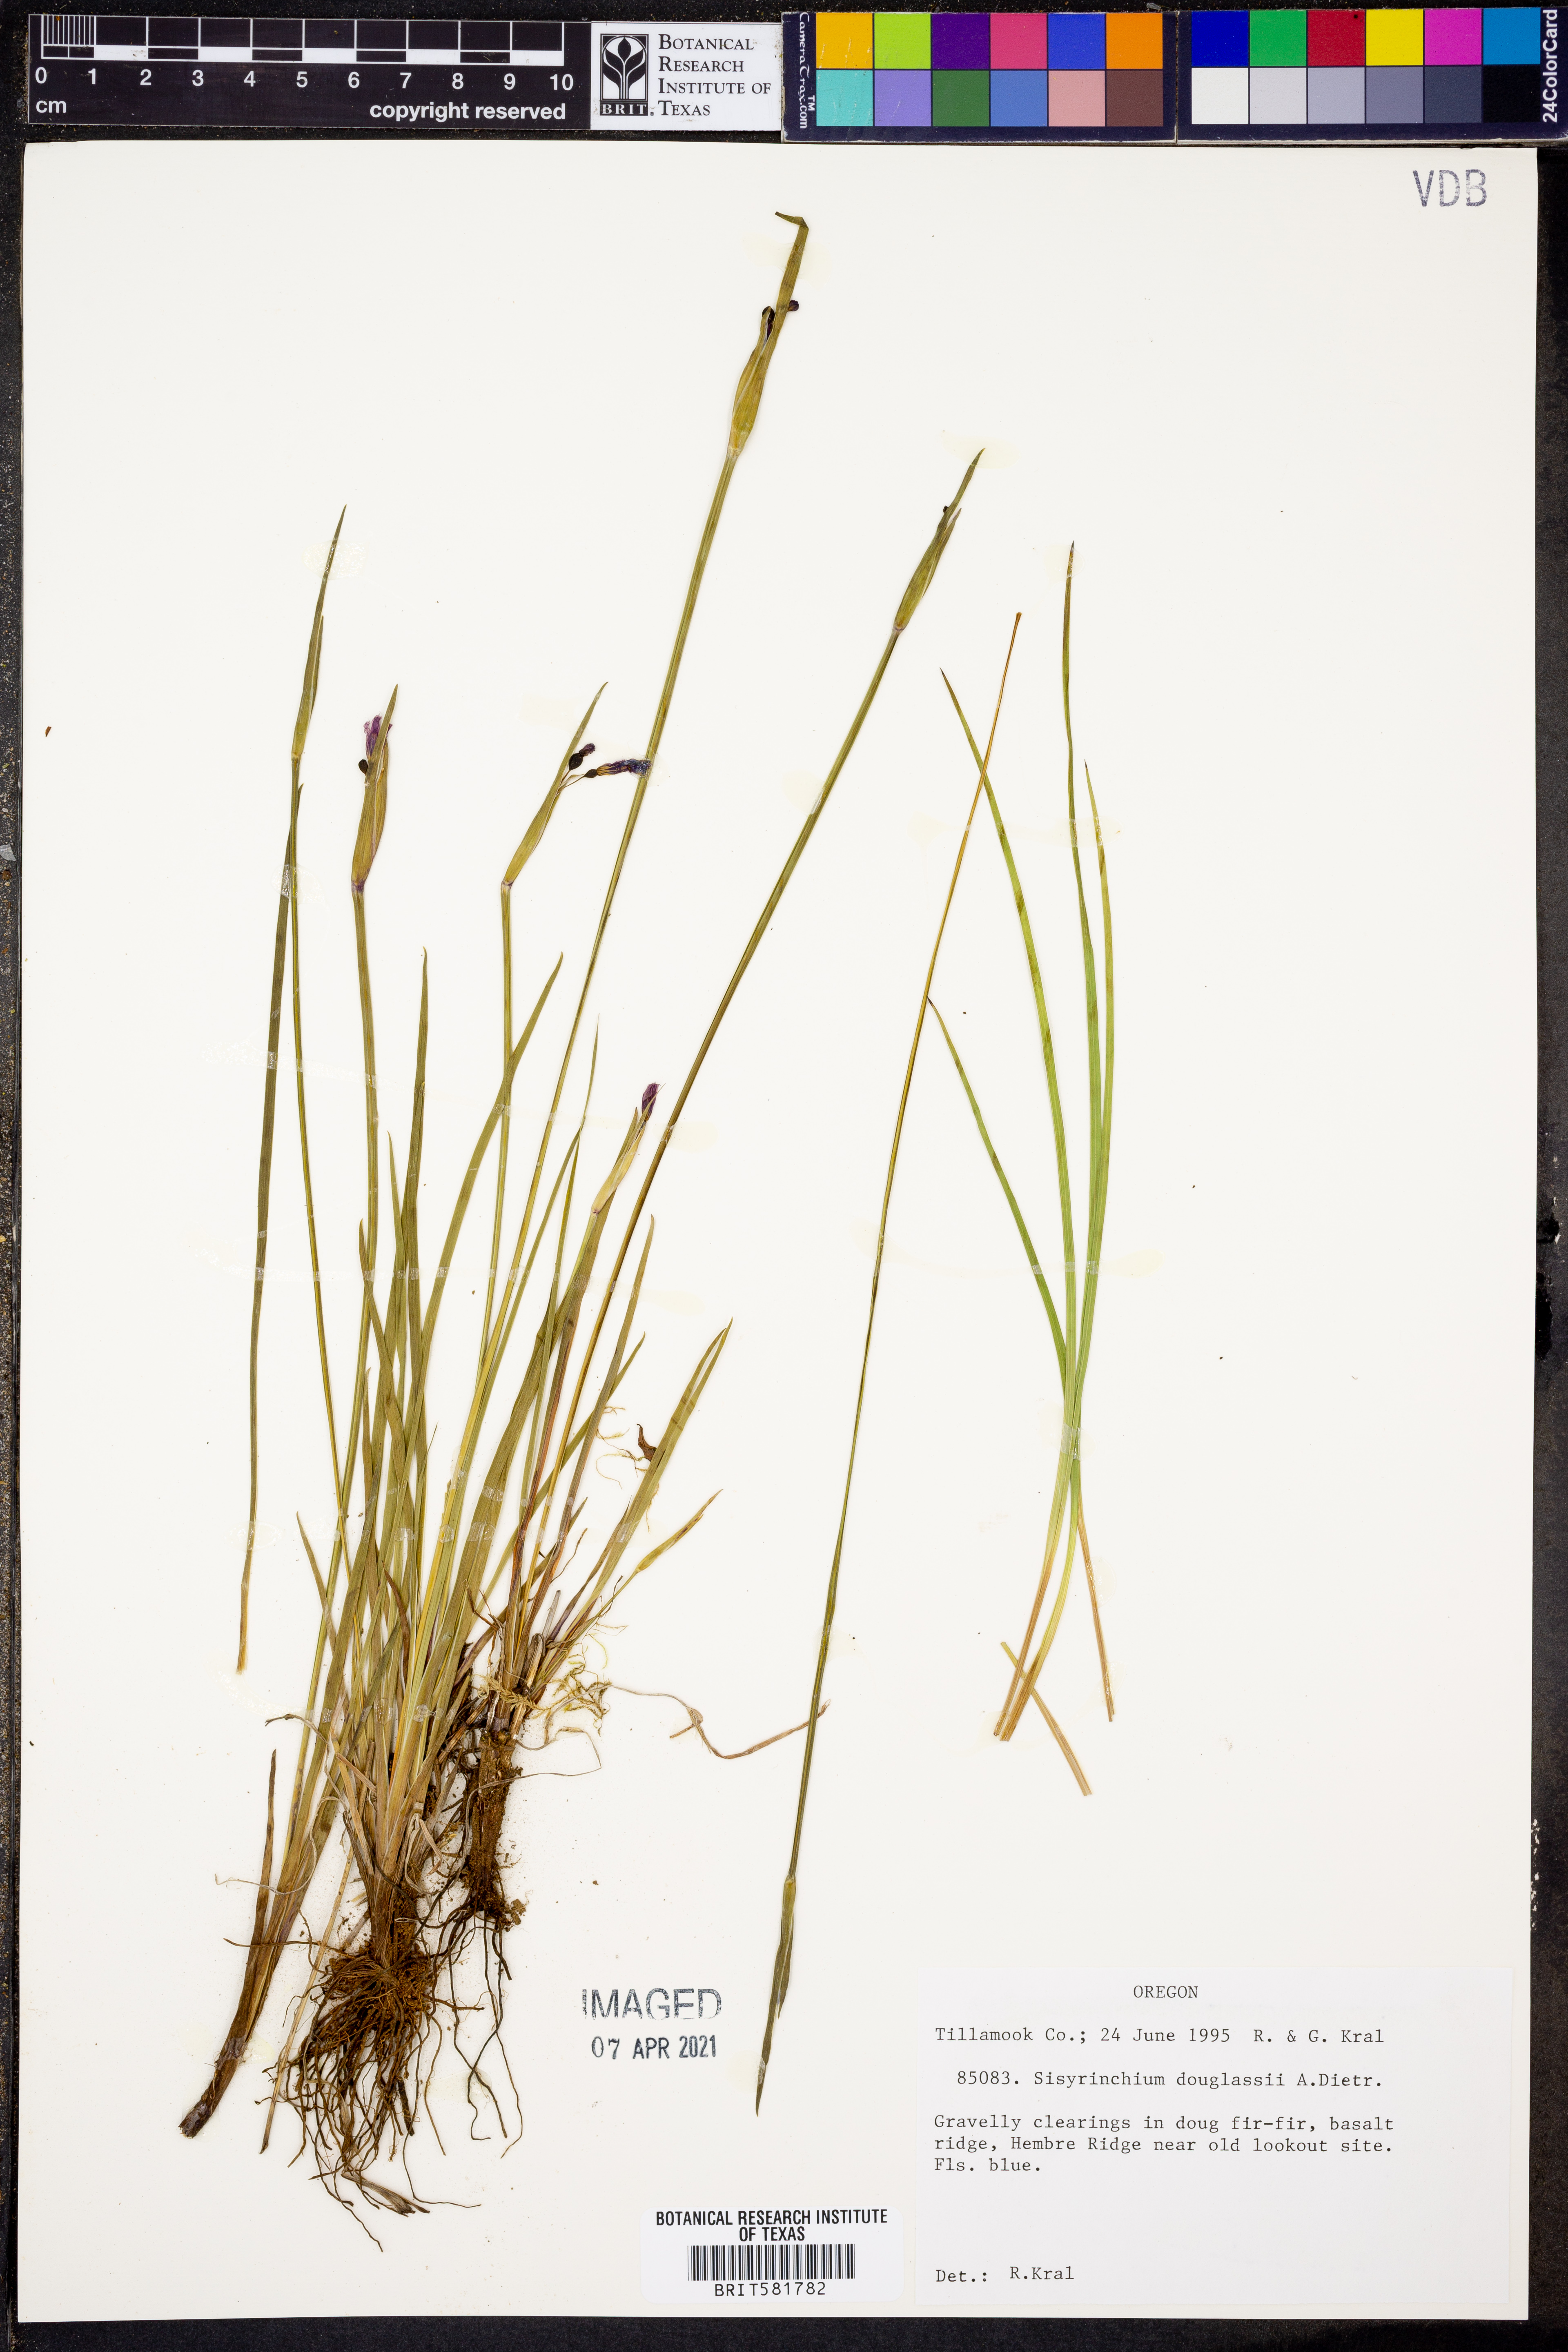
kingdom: Plantae
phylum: Tracheophyta
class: Liliopsida
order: Asparagales
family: Iridaceae
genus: Olsynium
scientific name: Olsynium douglasii
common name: Douglas' grasswidow
